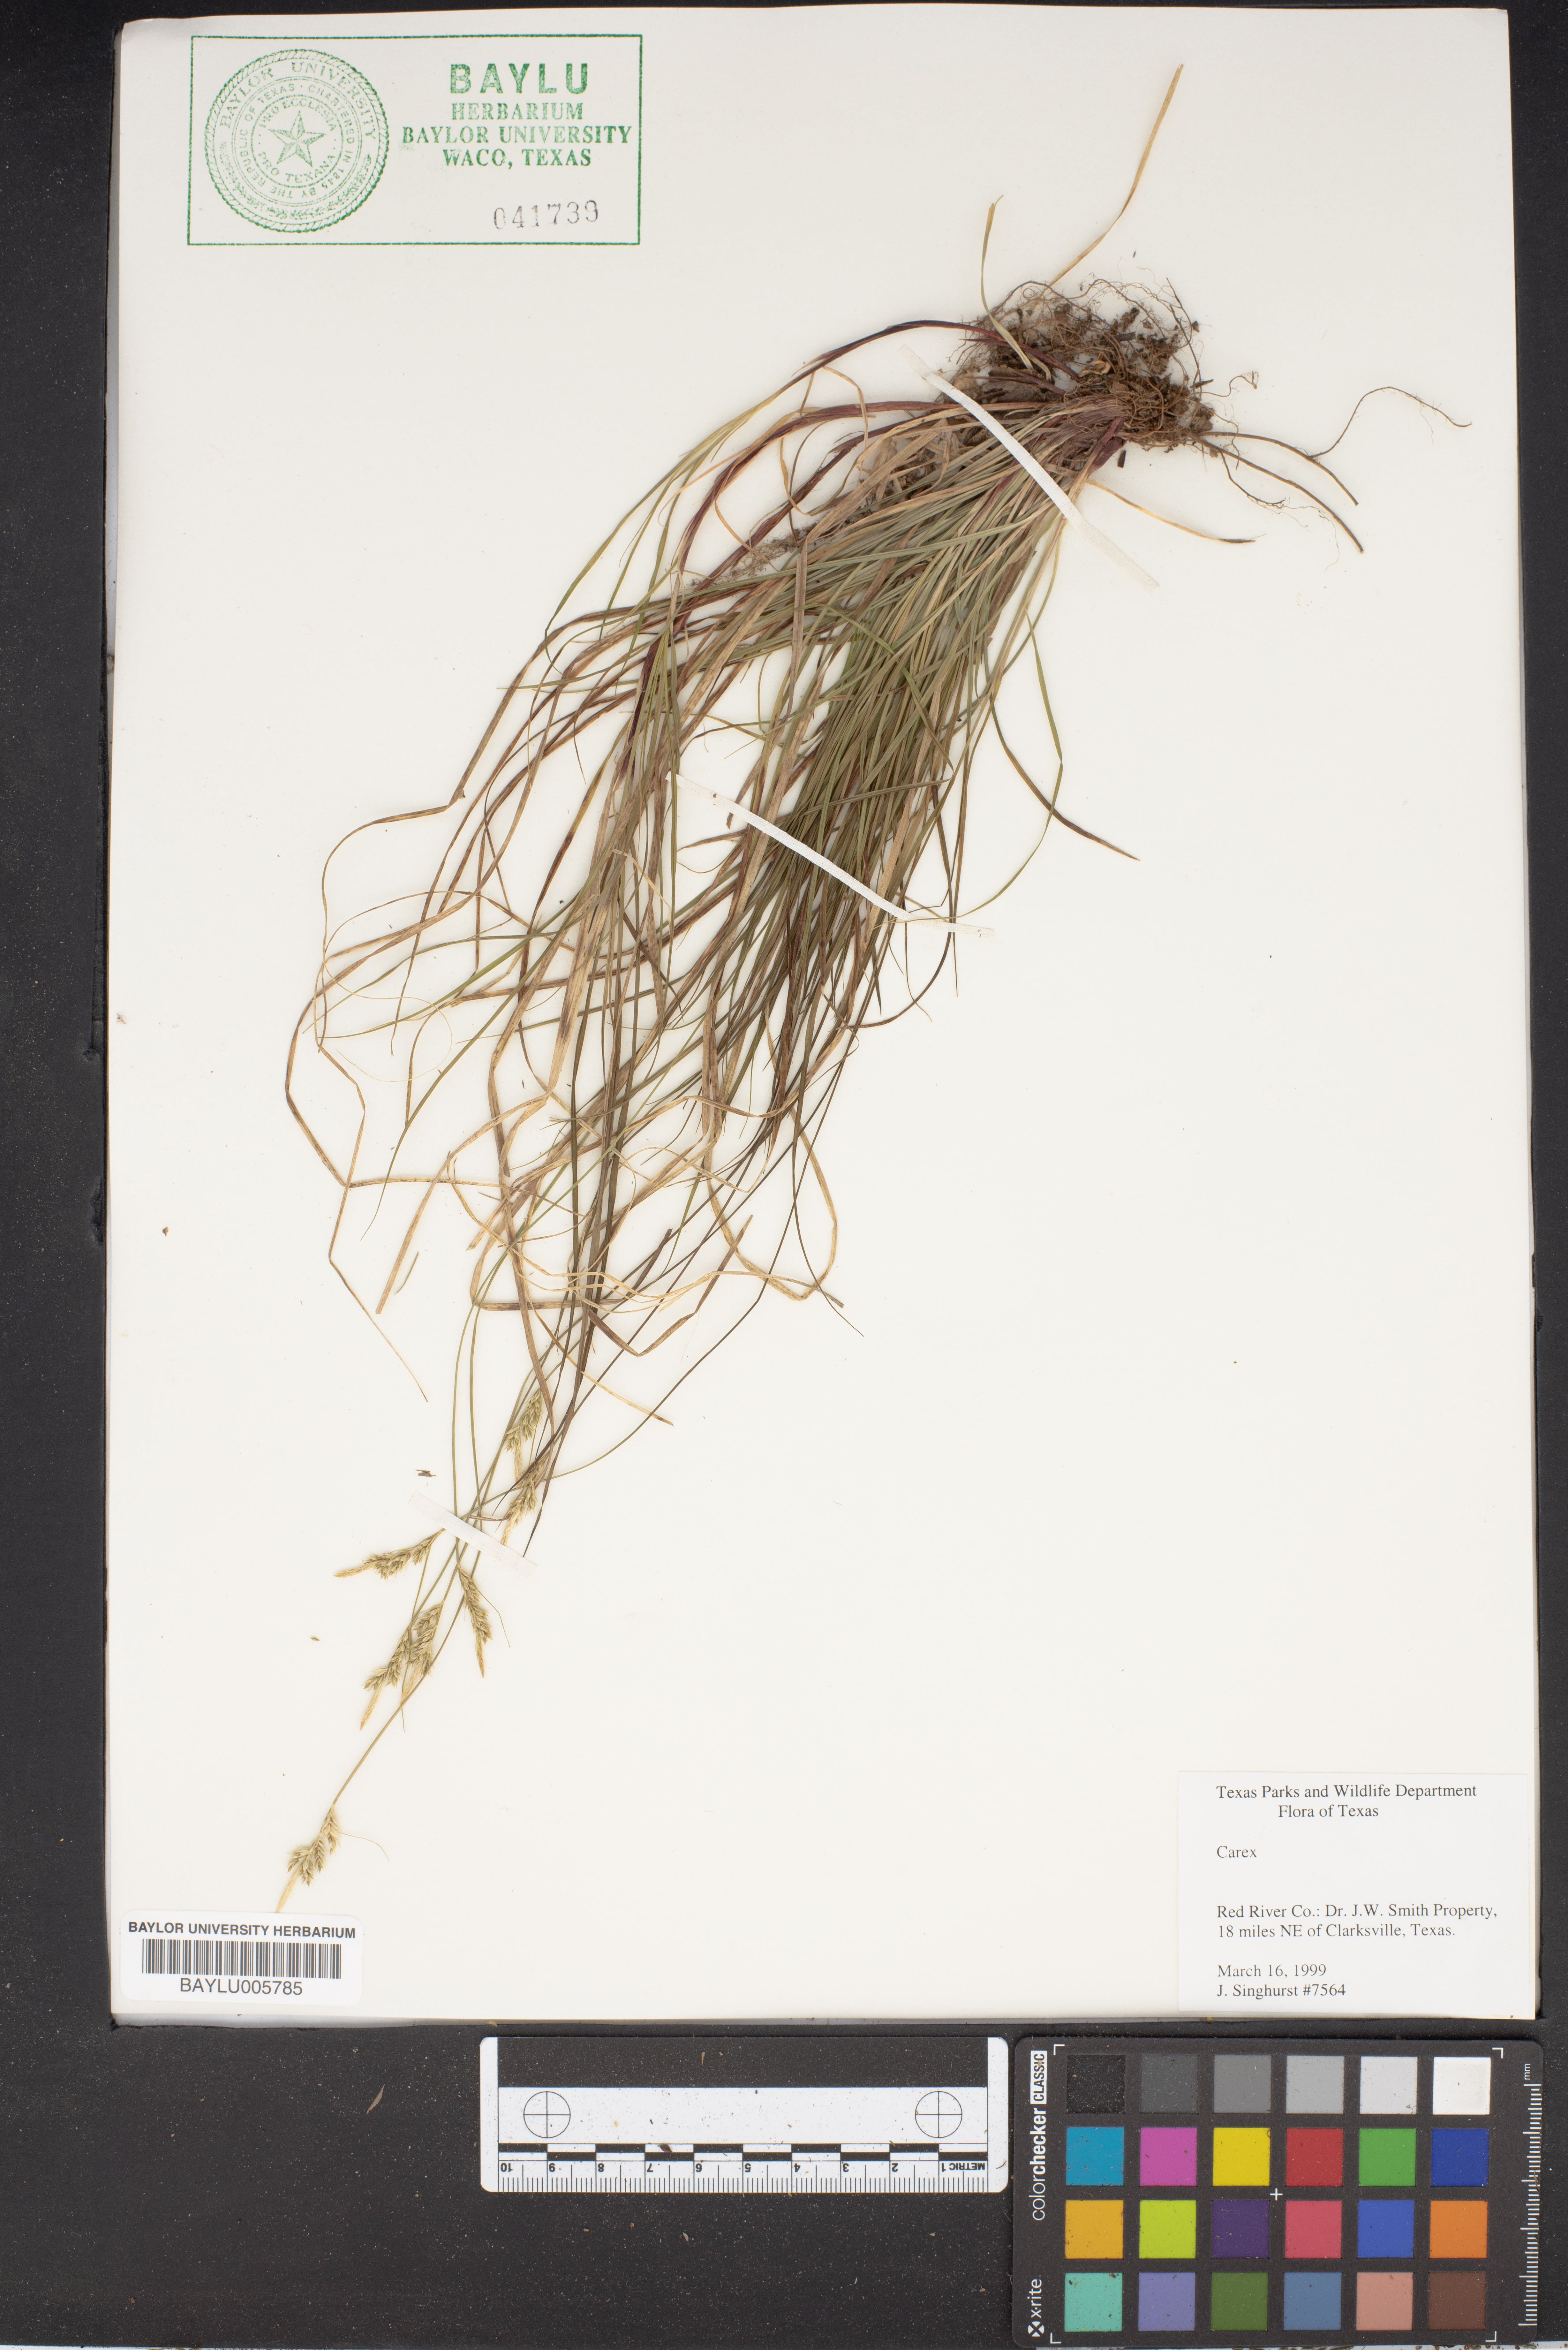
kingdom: Plantae
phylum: Tracheophyta
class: Liliopsida
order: Poales
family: Cyperaceae
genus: Carex
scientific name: Carex
